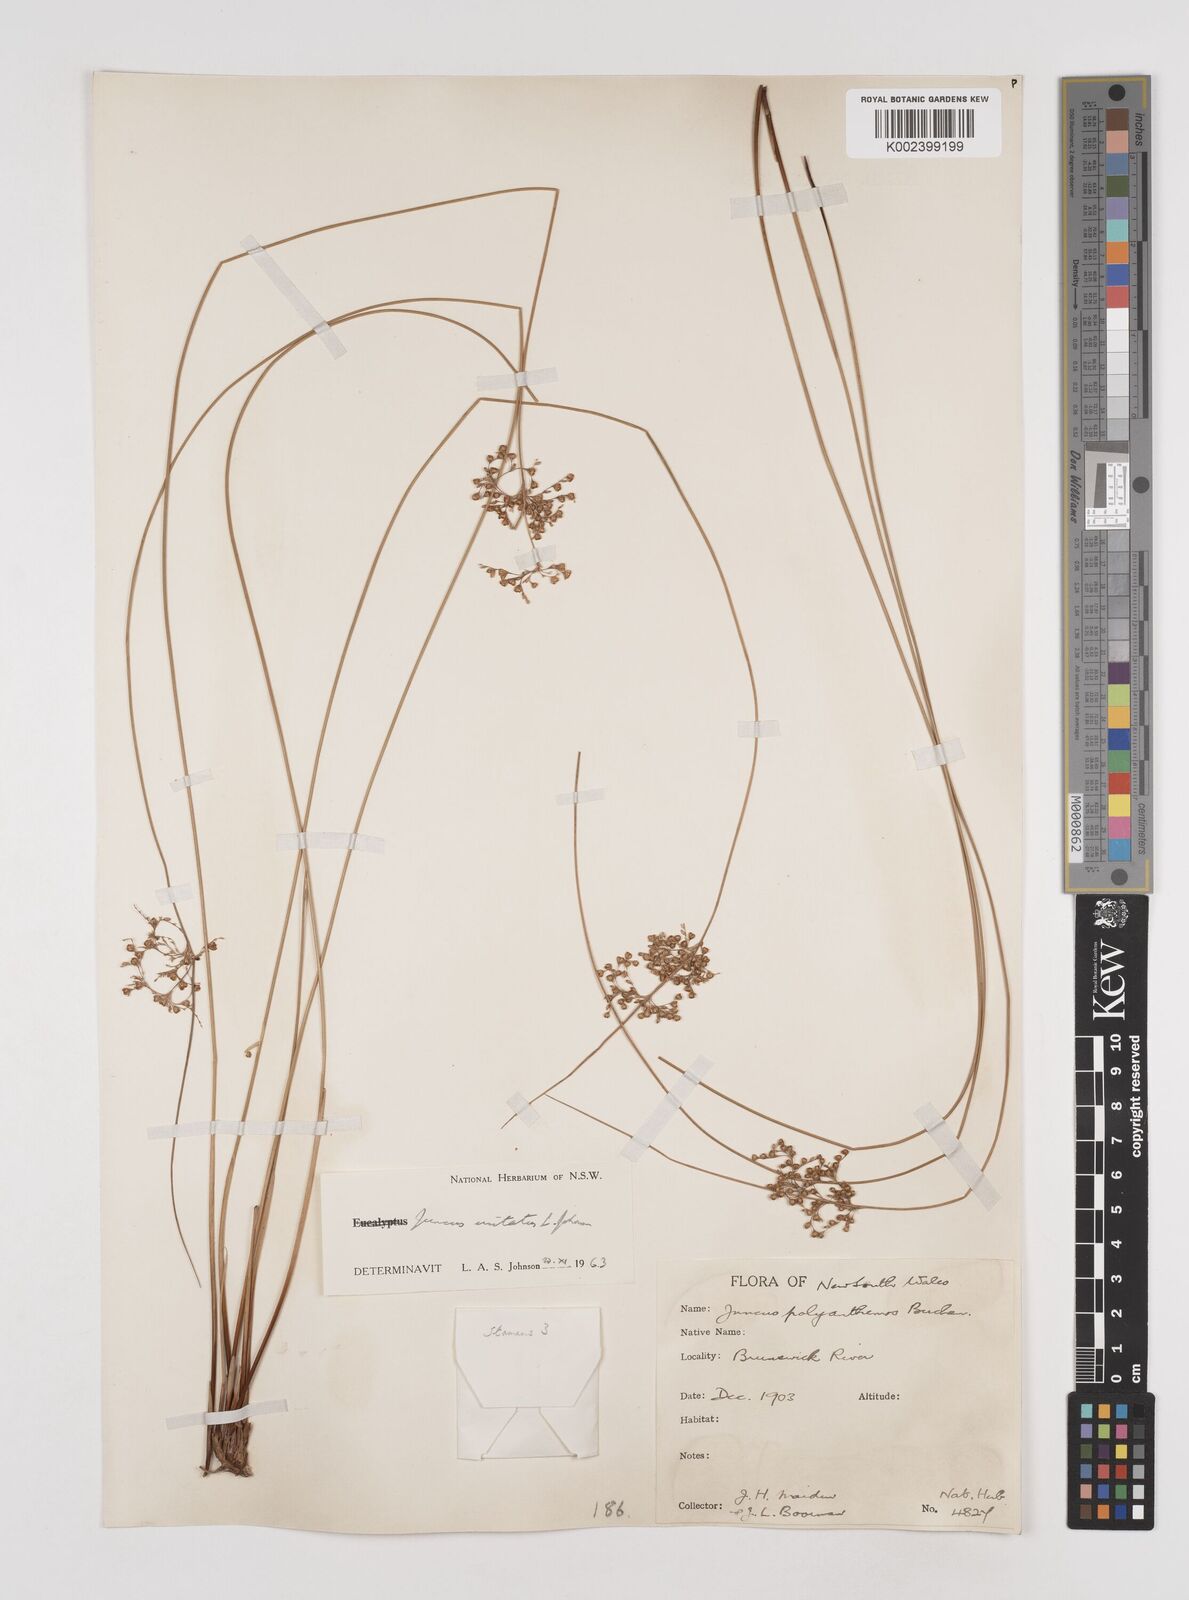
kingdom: Plantae
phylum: Tracheophyta
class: Liliopsida
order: Poales
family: Juncaceae
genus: Juncus
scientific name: Juncus usitatus
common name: Rush
